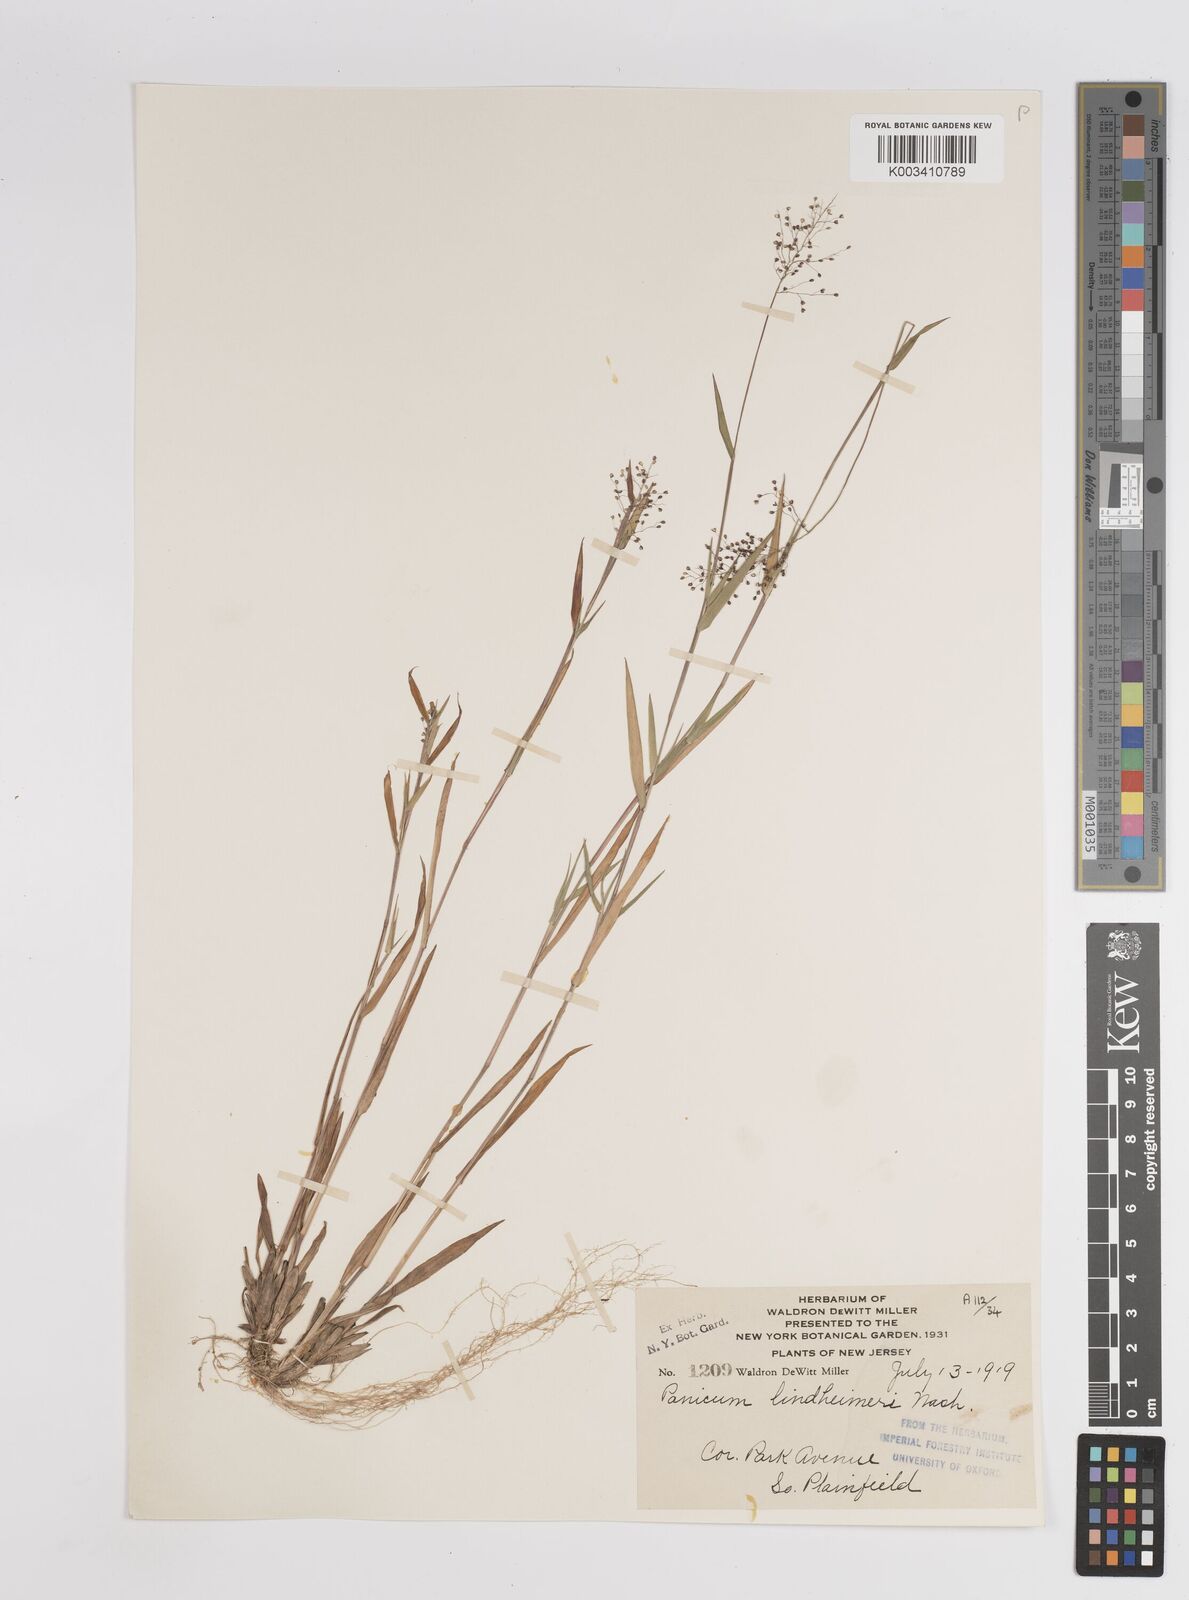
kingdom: Plantae
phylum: Tracheophyta
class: Liliopsida
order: Poales
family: Poaceae
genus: Dichanthelium
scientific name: Dichanthelium acuminatum
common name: Hairy panic grass
